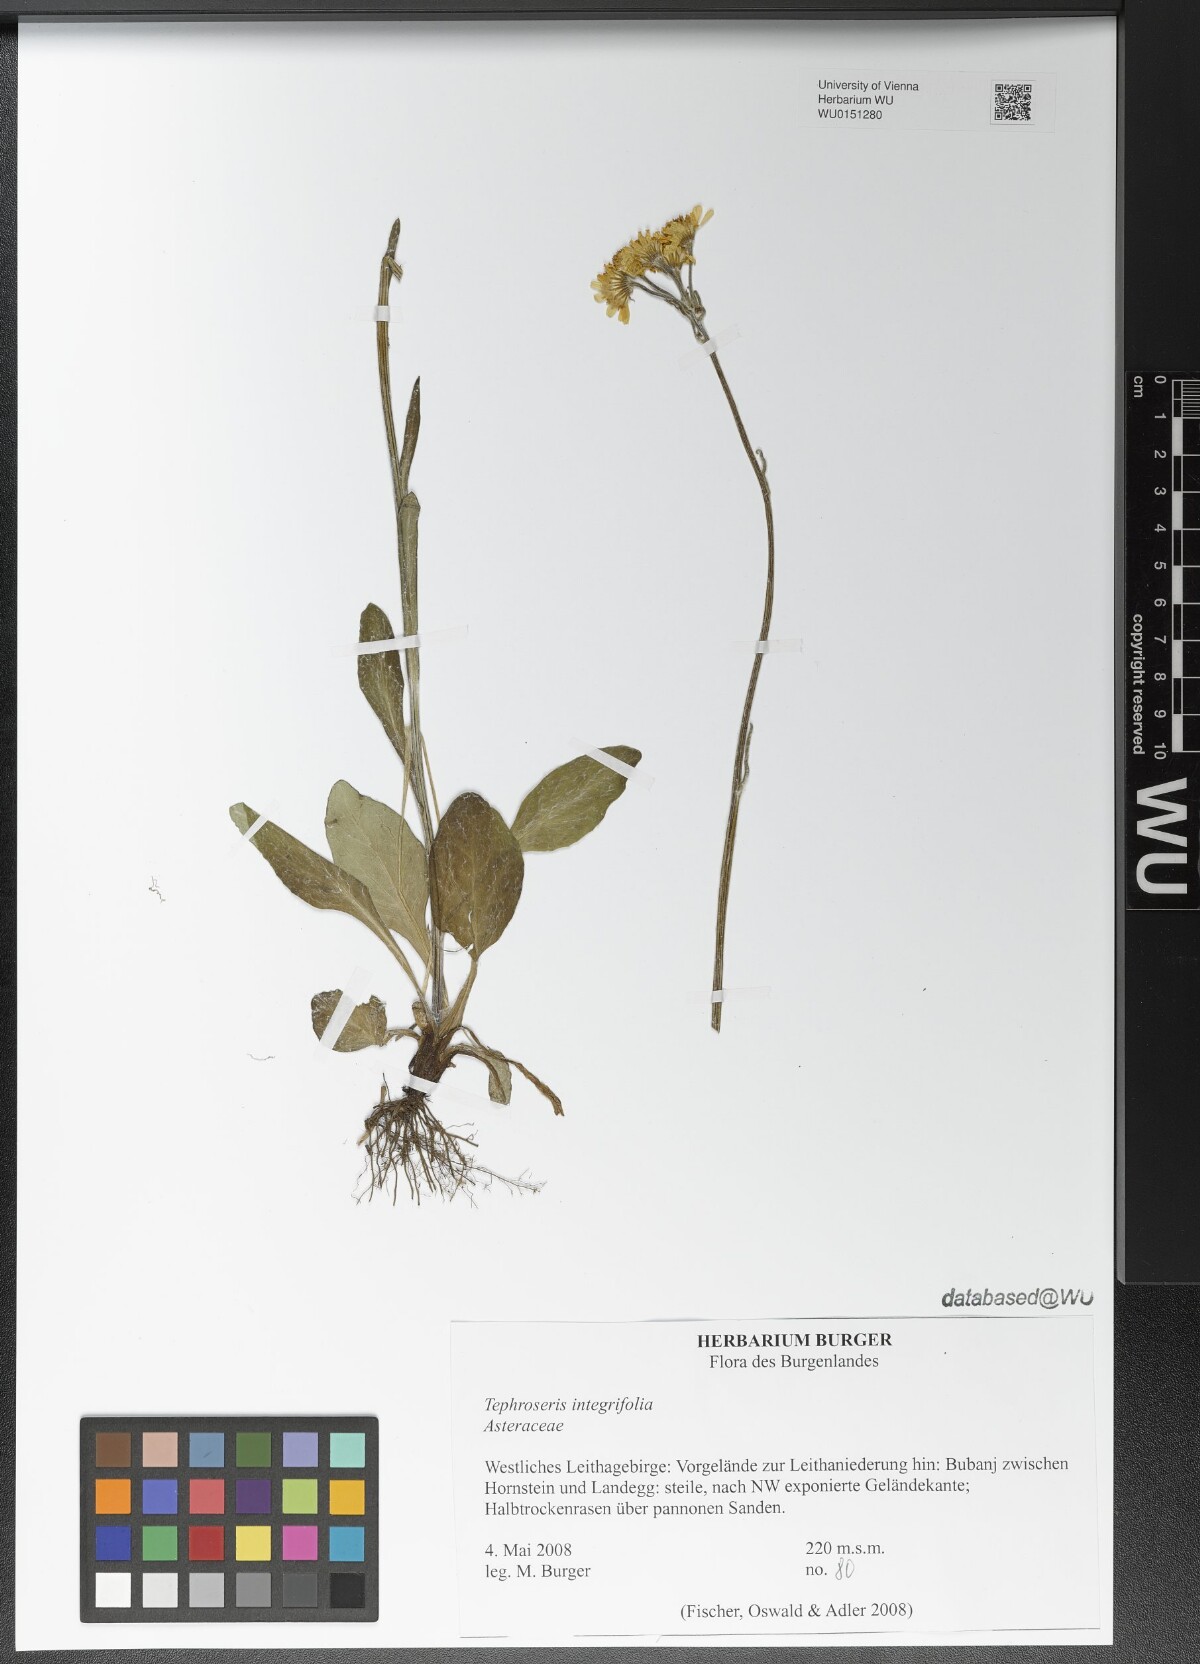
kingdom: Plantae
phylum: Tracheophyta
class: Magnoliopsida
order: Asterales
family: Asteraceae
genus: Tephroseris
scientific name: Tephroseris integrifolia
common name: Field fleawort
